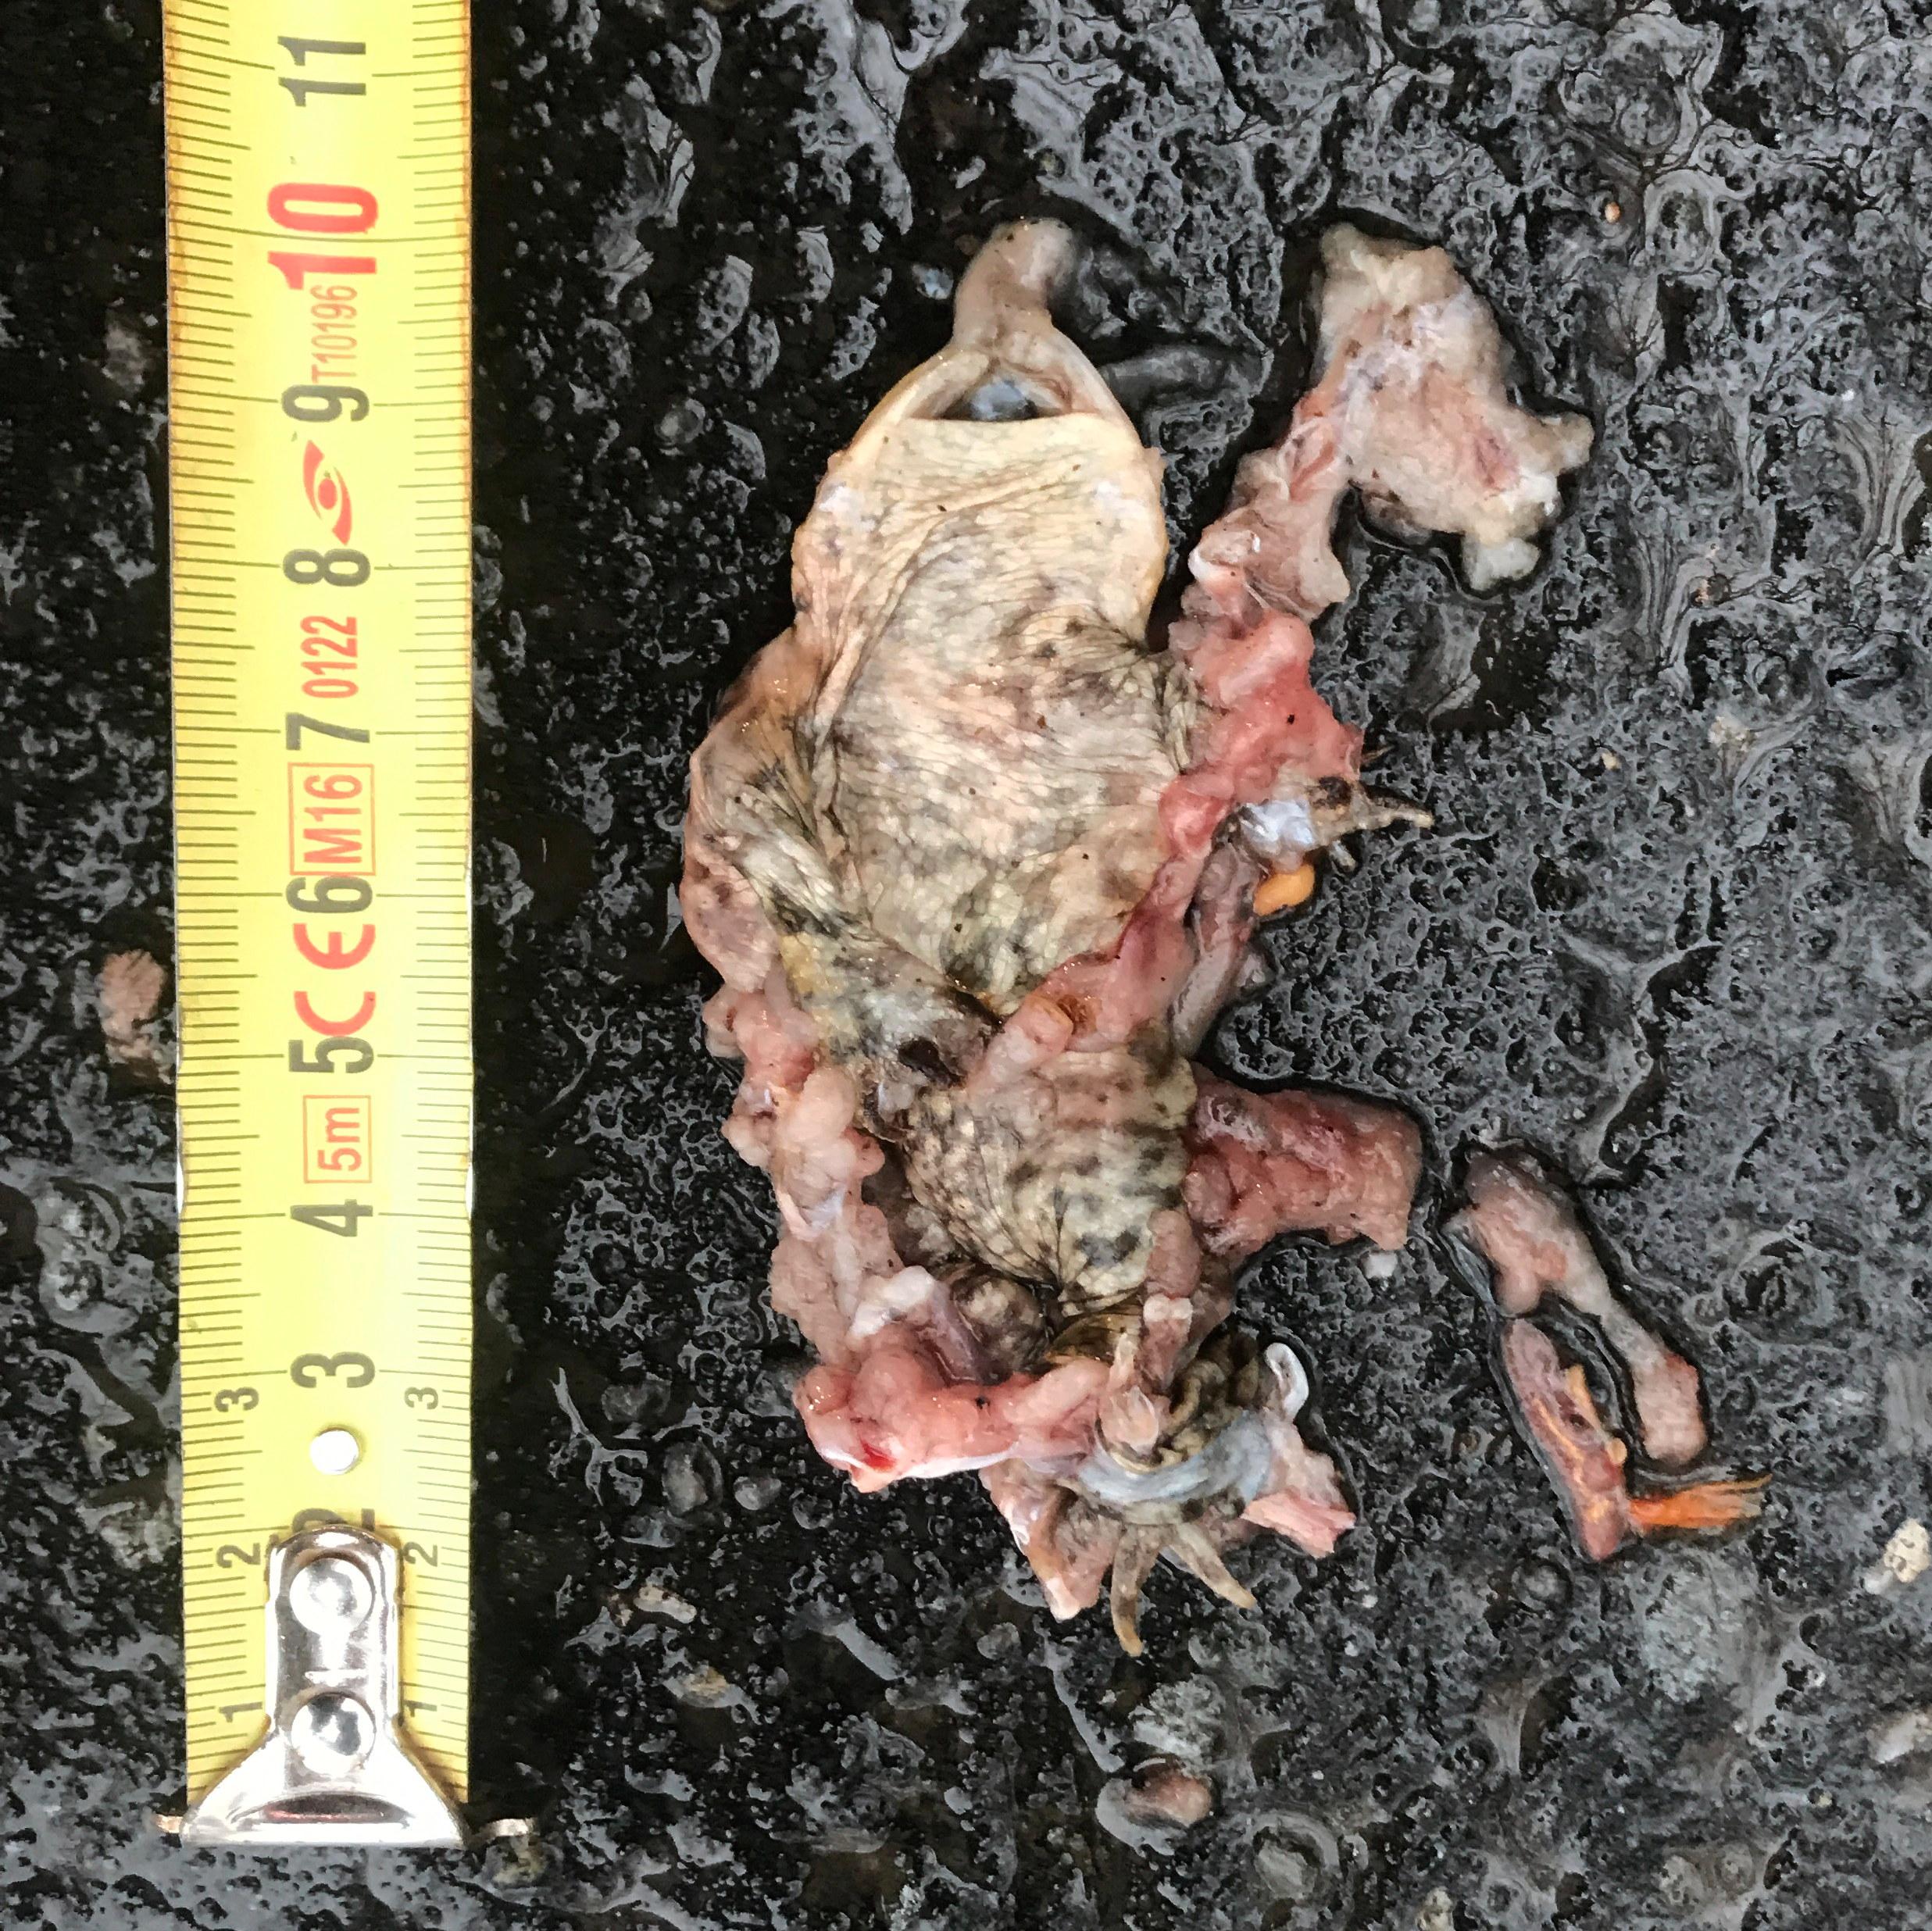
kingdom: Animalia
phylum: Chordata
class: Amphibia
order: Anura
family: Bufonidae
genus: Bufo
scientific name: Bufo bufo
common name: Common toad
